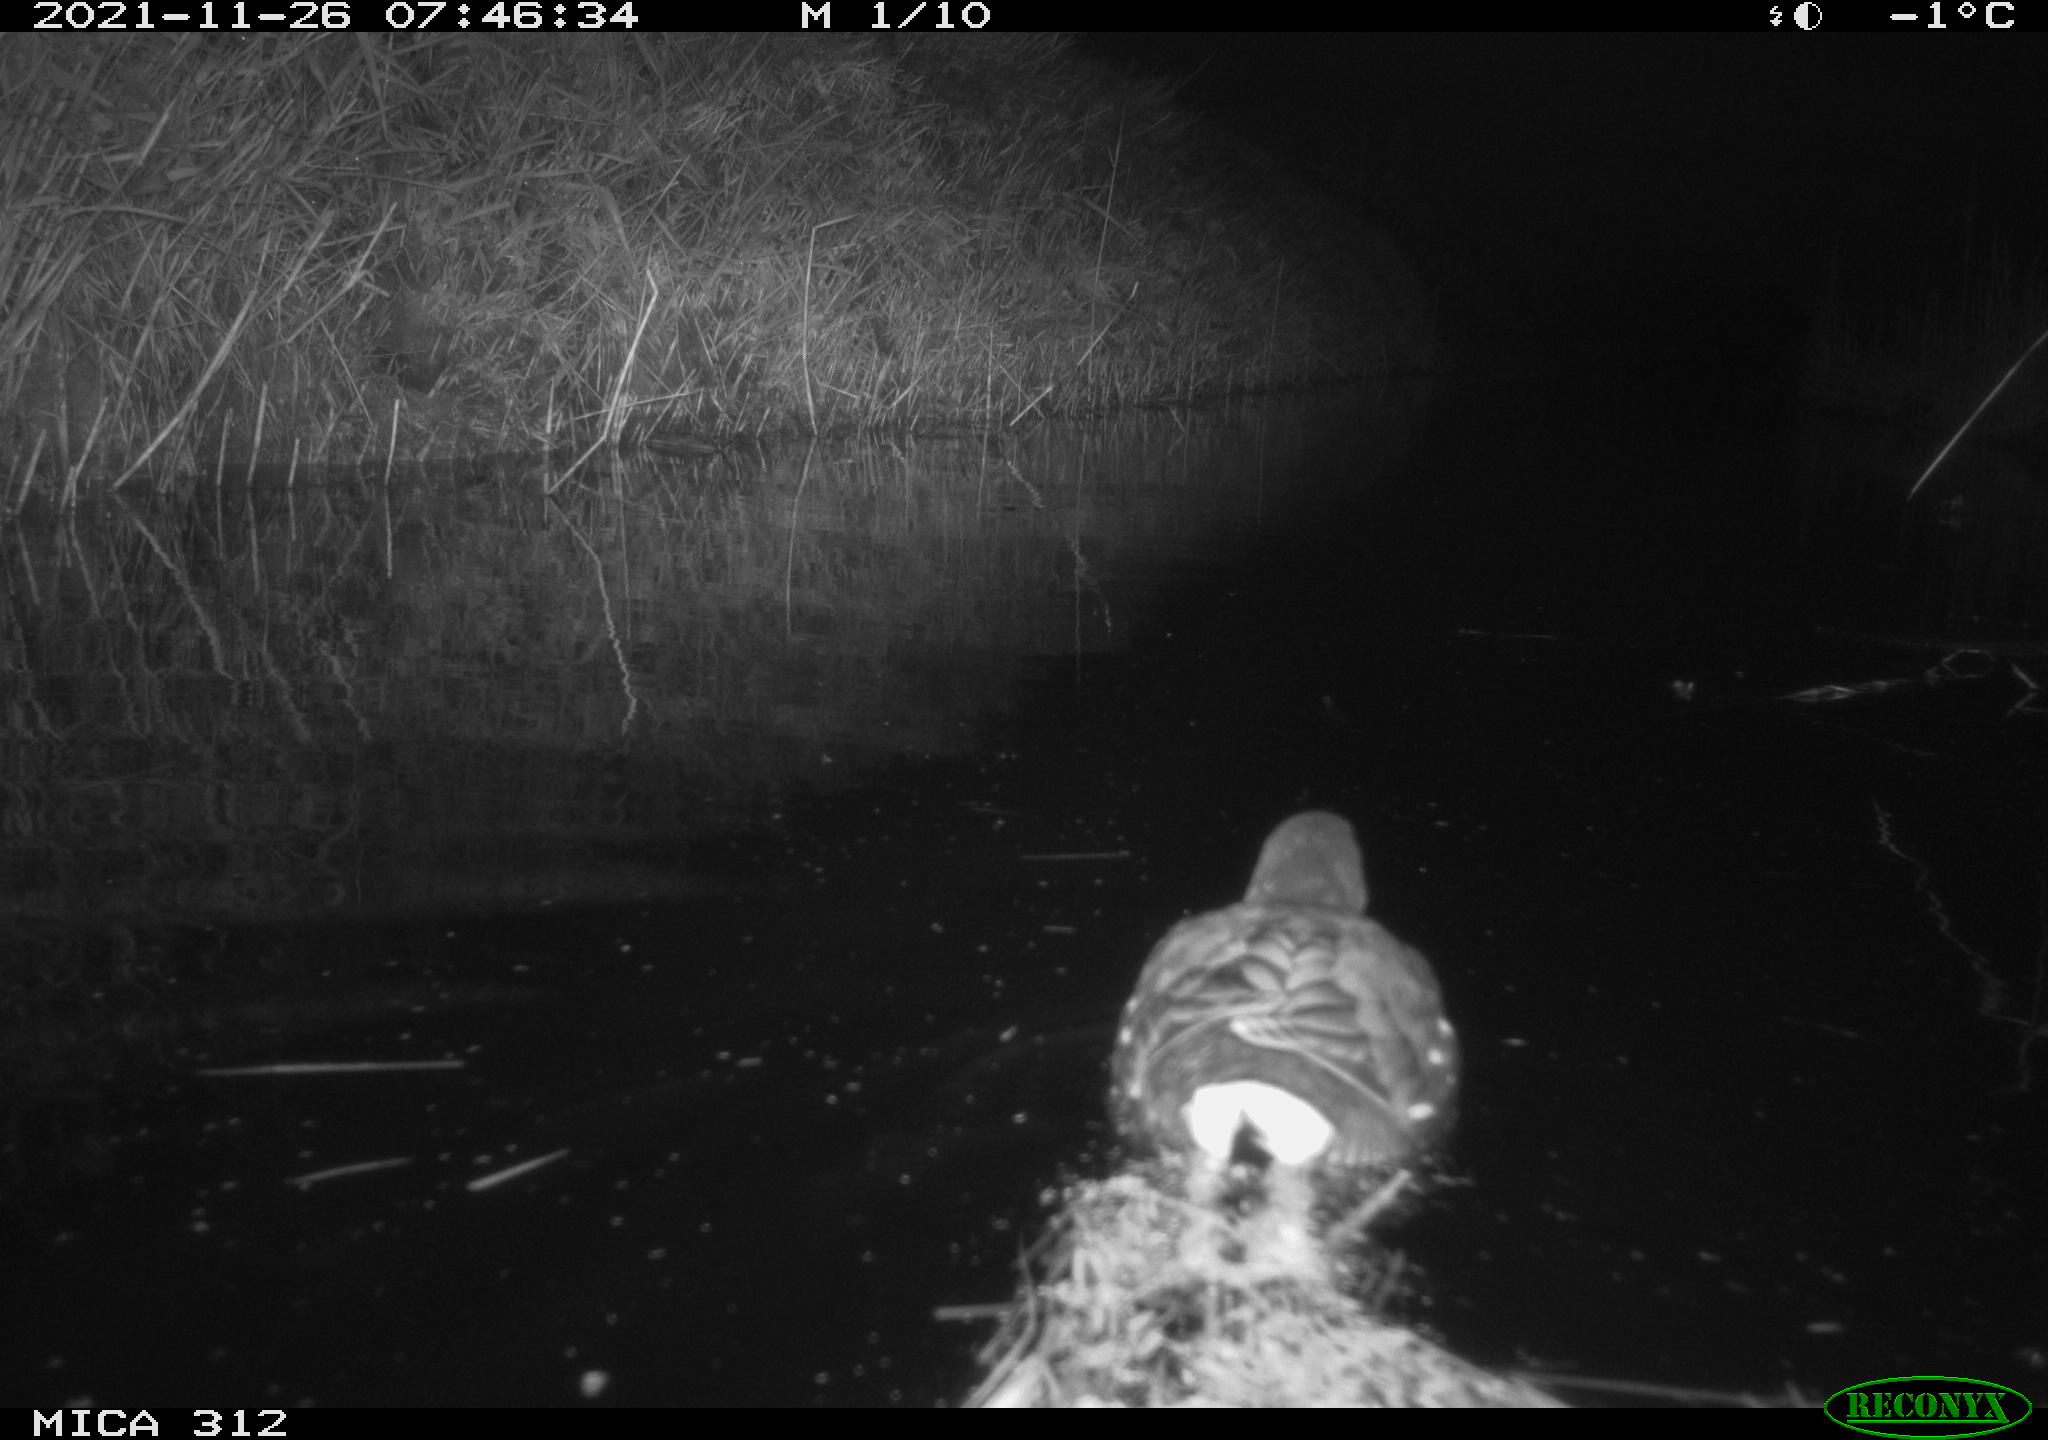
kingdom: Animalia
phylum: Chordata
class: Aves
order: Anseriformes
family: Anatidae
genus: Anas
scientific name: Anas
